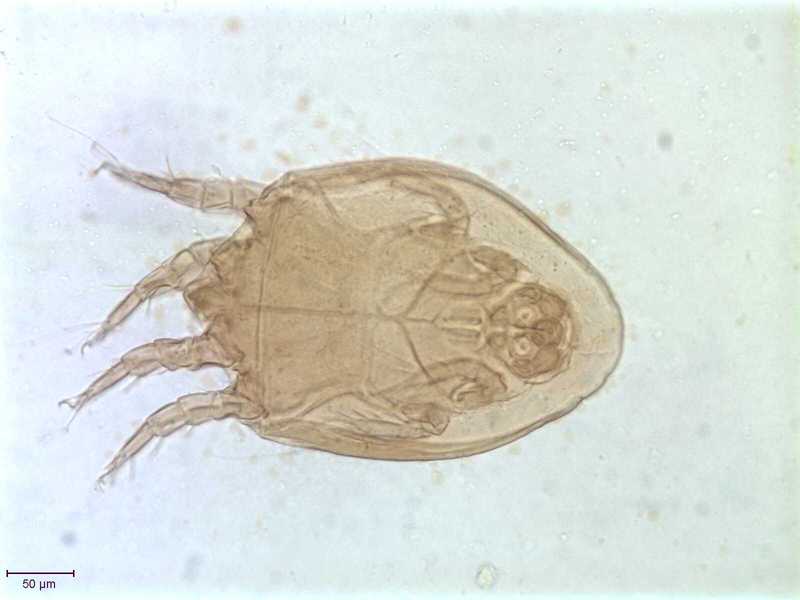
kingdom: Animalia
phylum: Arthropoda
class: Arachnida
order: Sarcoptiformes
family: Algophagidae
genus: Hericia
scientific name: Hericia fermentationis
